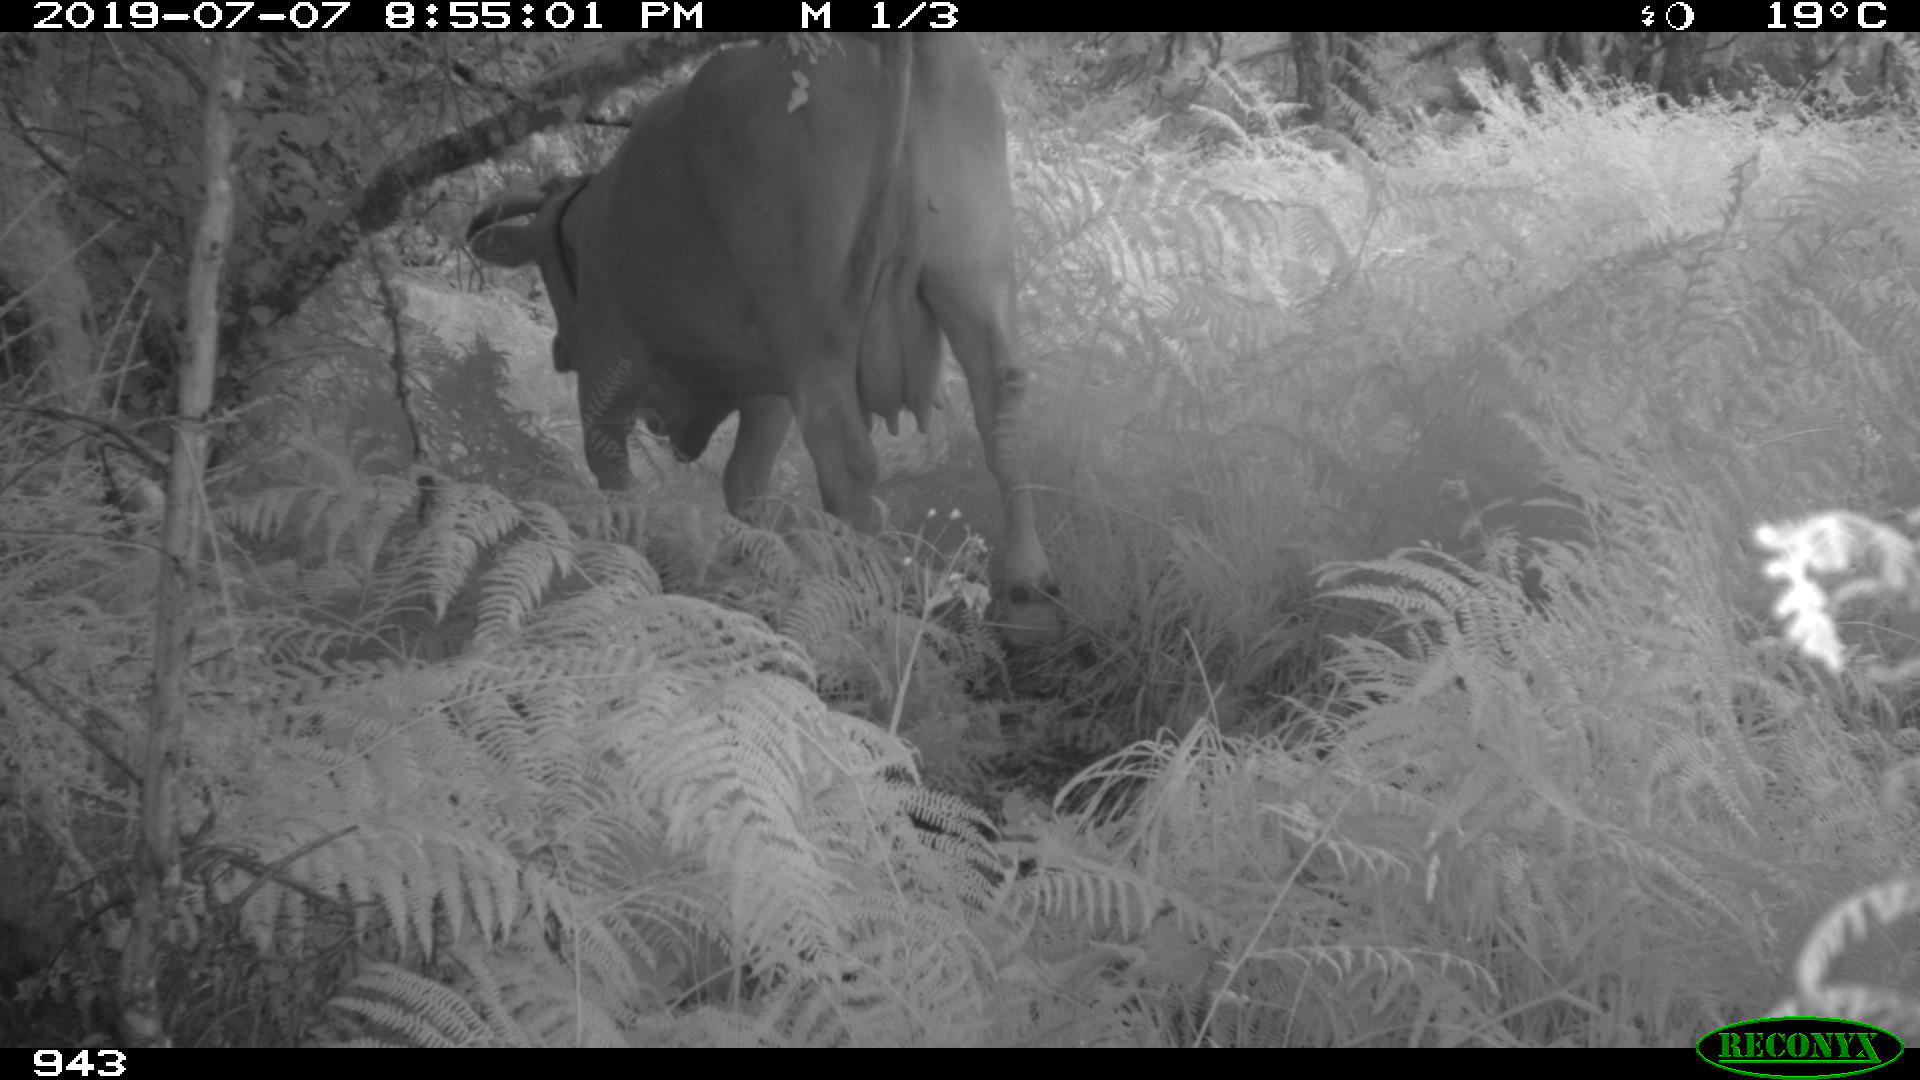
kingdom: Animalia
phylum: Chordata
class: Mammalia
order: Artiodactyla
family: Bovidae
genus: Bos
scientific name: Bos taurus
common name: Domesticated cattle
